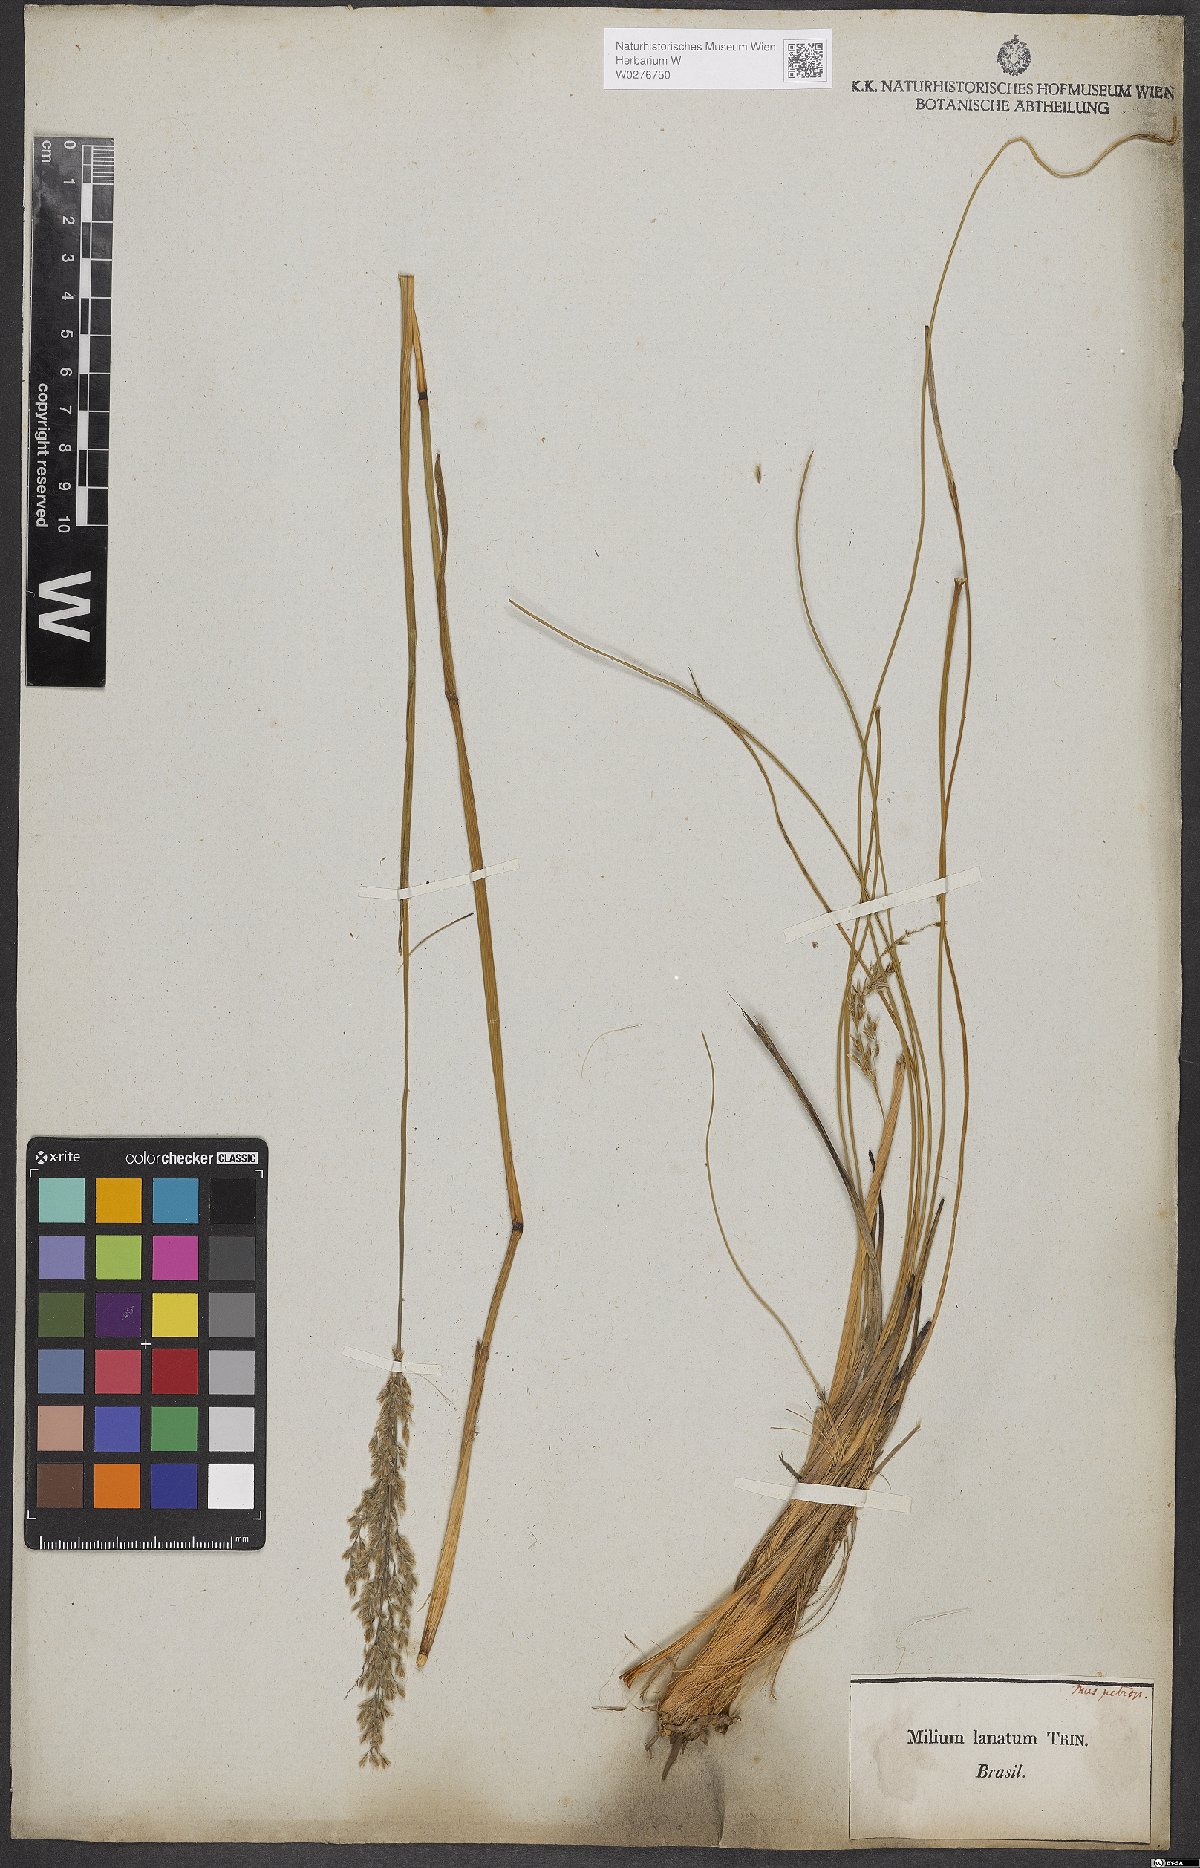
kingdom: Plantae
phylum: Tracheophyta
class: Liliopsida
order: Poales
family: Poaceae
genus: Anthaenantia
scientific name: Anthaenantia lanata
